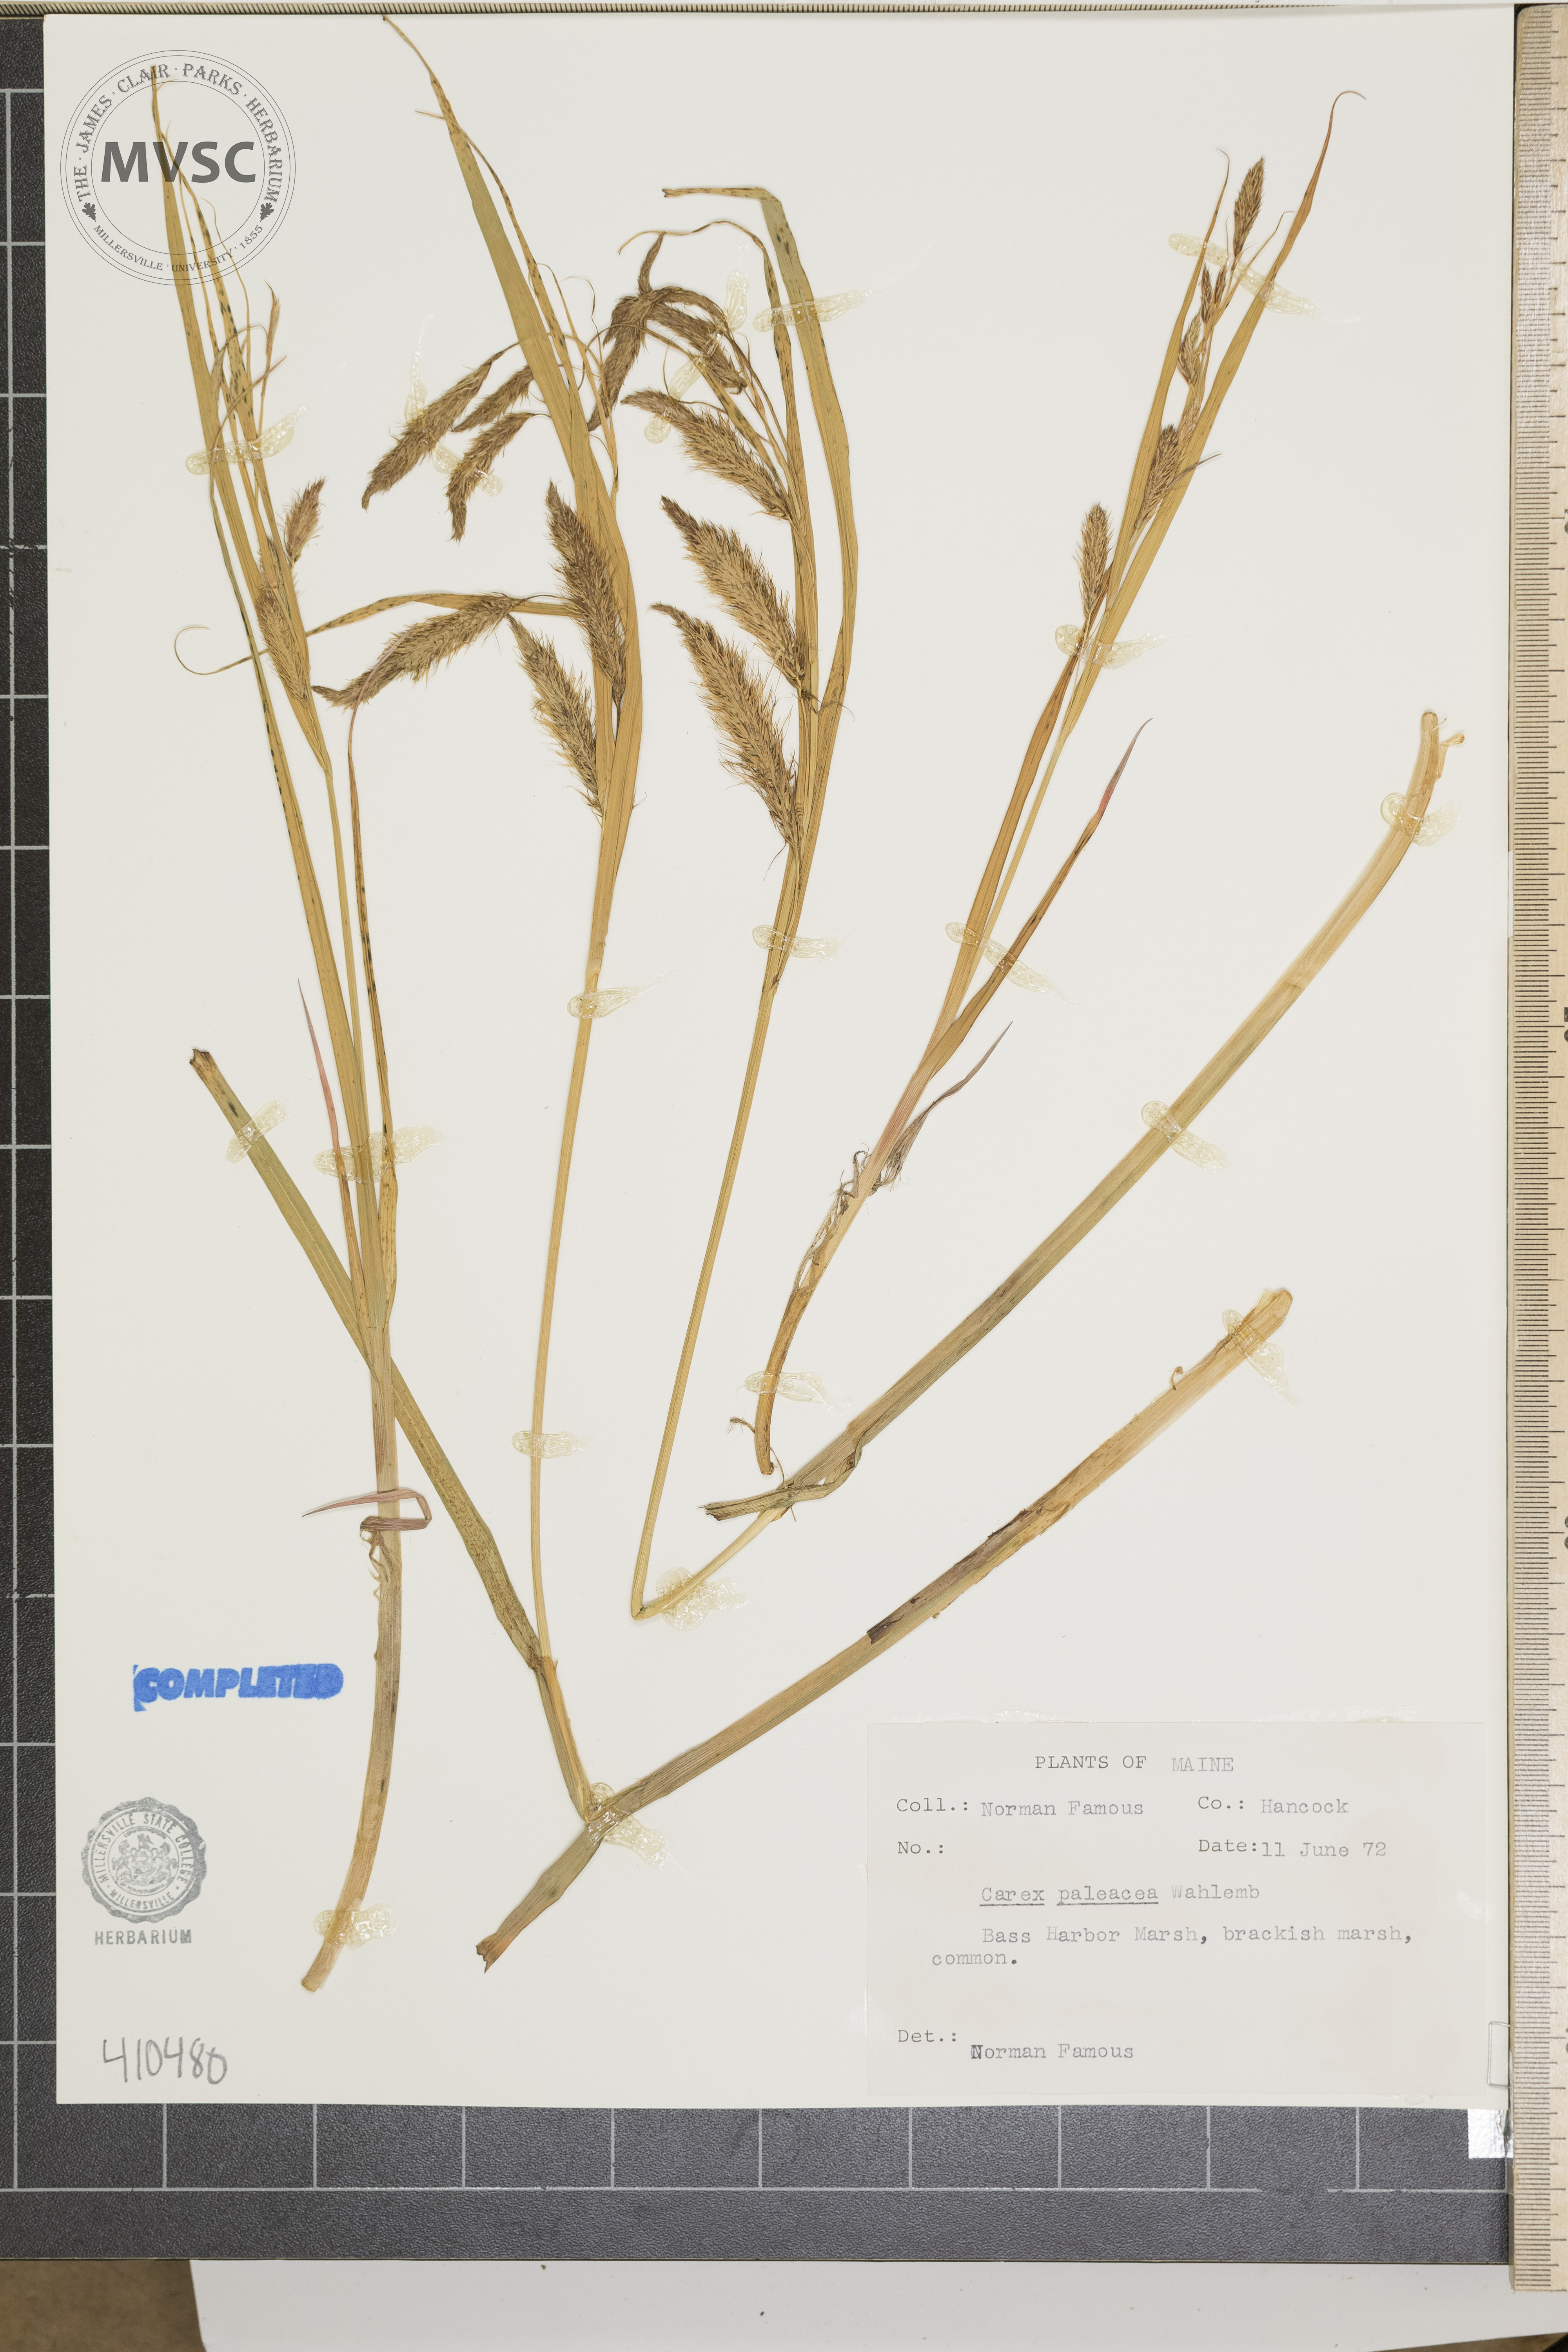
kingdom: Plantae
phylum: Tracheophyta
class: Liliopsida
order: Poales
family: Cyperaceae
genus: Carex
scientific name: Carex paleacea
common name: Chaffy sedge
